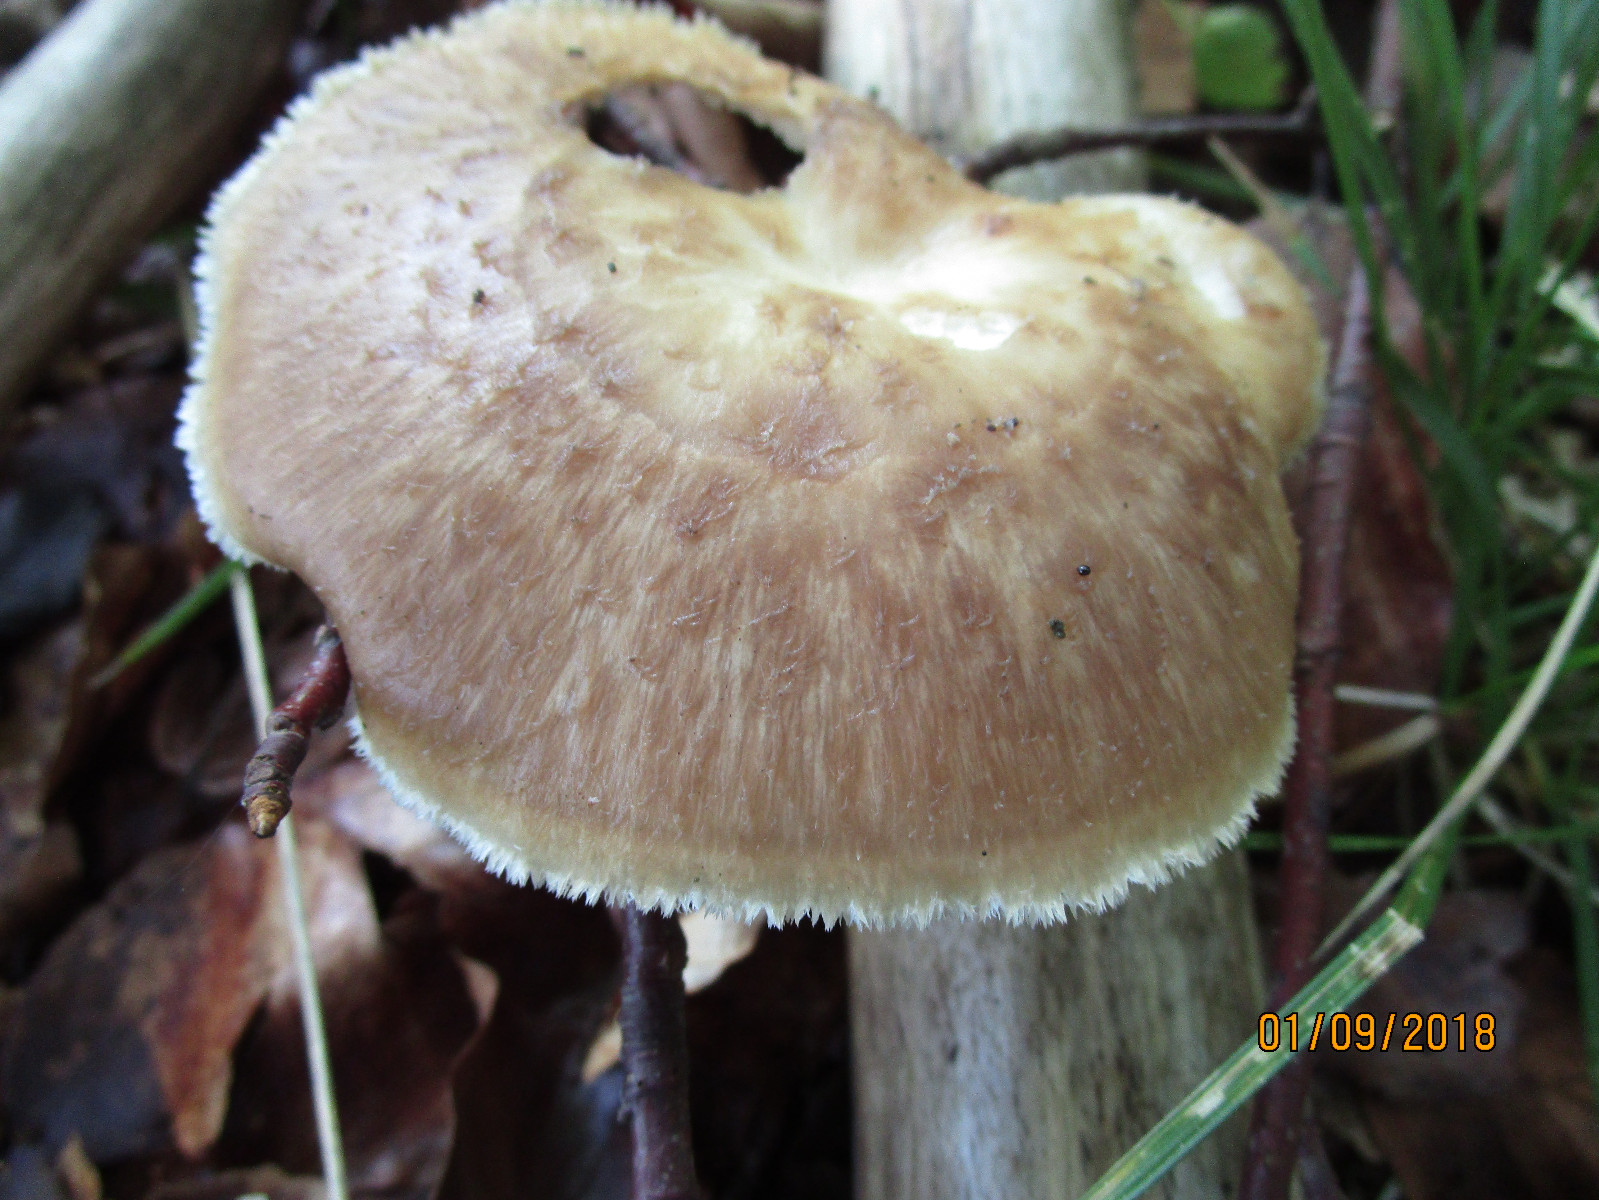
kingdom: Fungi
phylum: Basidiomycota
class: Agaricomycetes
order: Polyporales
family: Polyporaceae
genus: Polyporus
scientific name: Polyporus tuberaster
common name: knoldet stilkporesvamp
